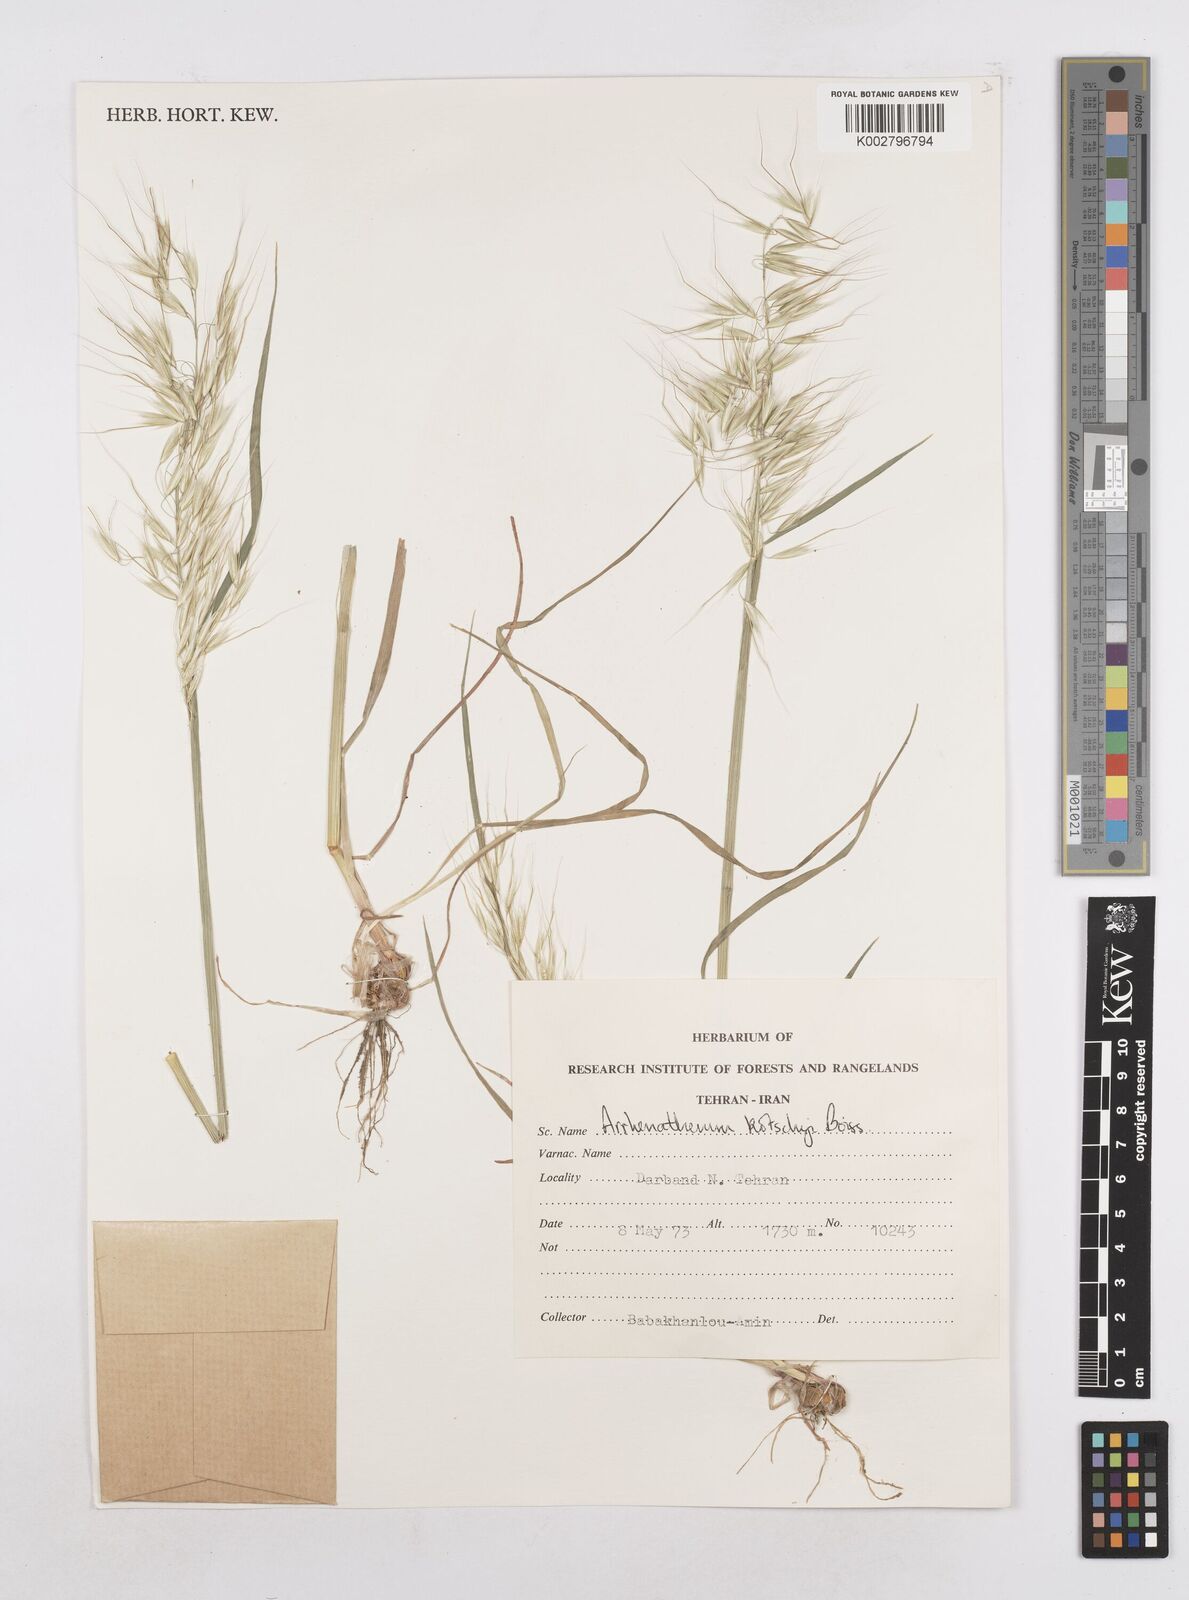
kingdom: Plantae
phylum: Tracheophyta
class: Liliopsida
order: Poales
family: Poaceae
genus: Arrhenatherum
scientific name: Arrhenatherum kotschyi
